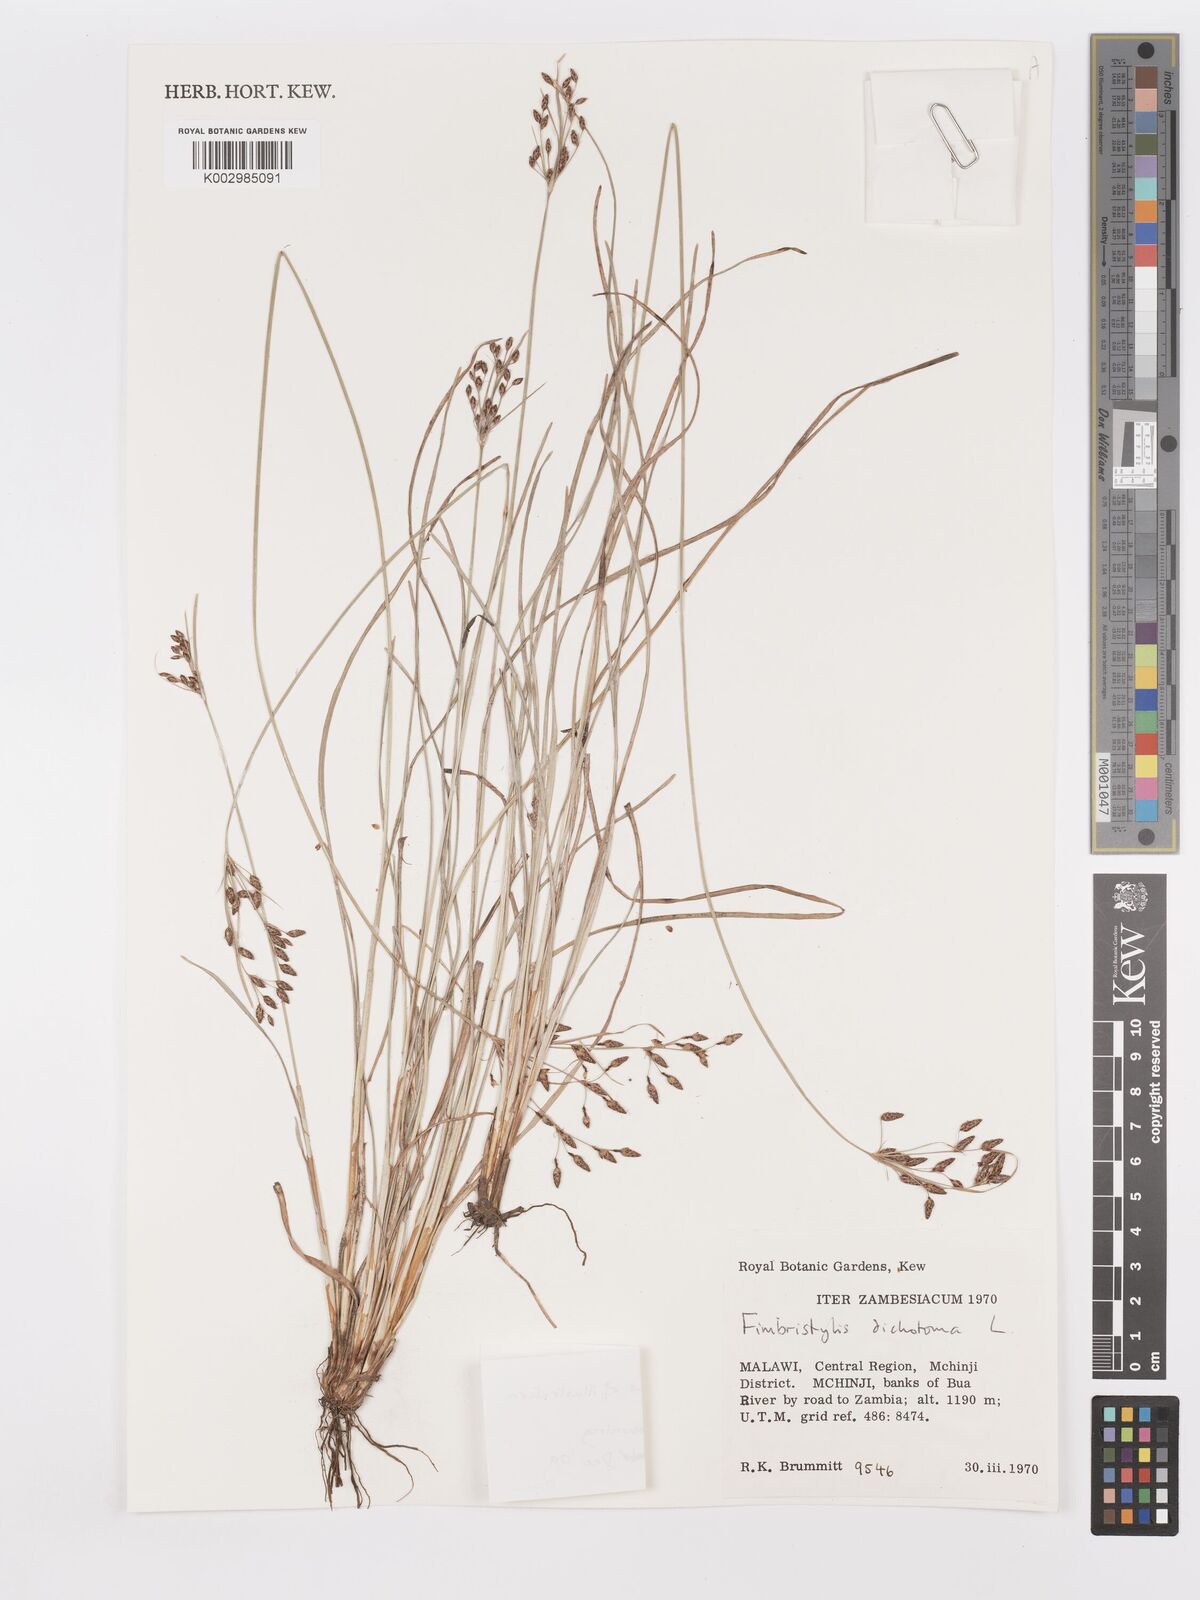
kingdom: Plantae
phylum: Tracheophyta
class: Liliopsida
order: Poales
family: Cyperaceae
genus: Fimbristylis
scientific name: Fimbristylis dichotoma
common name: Forked fimbry
